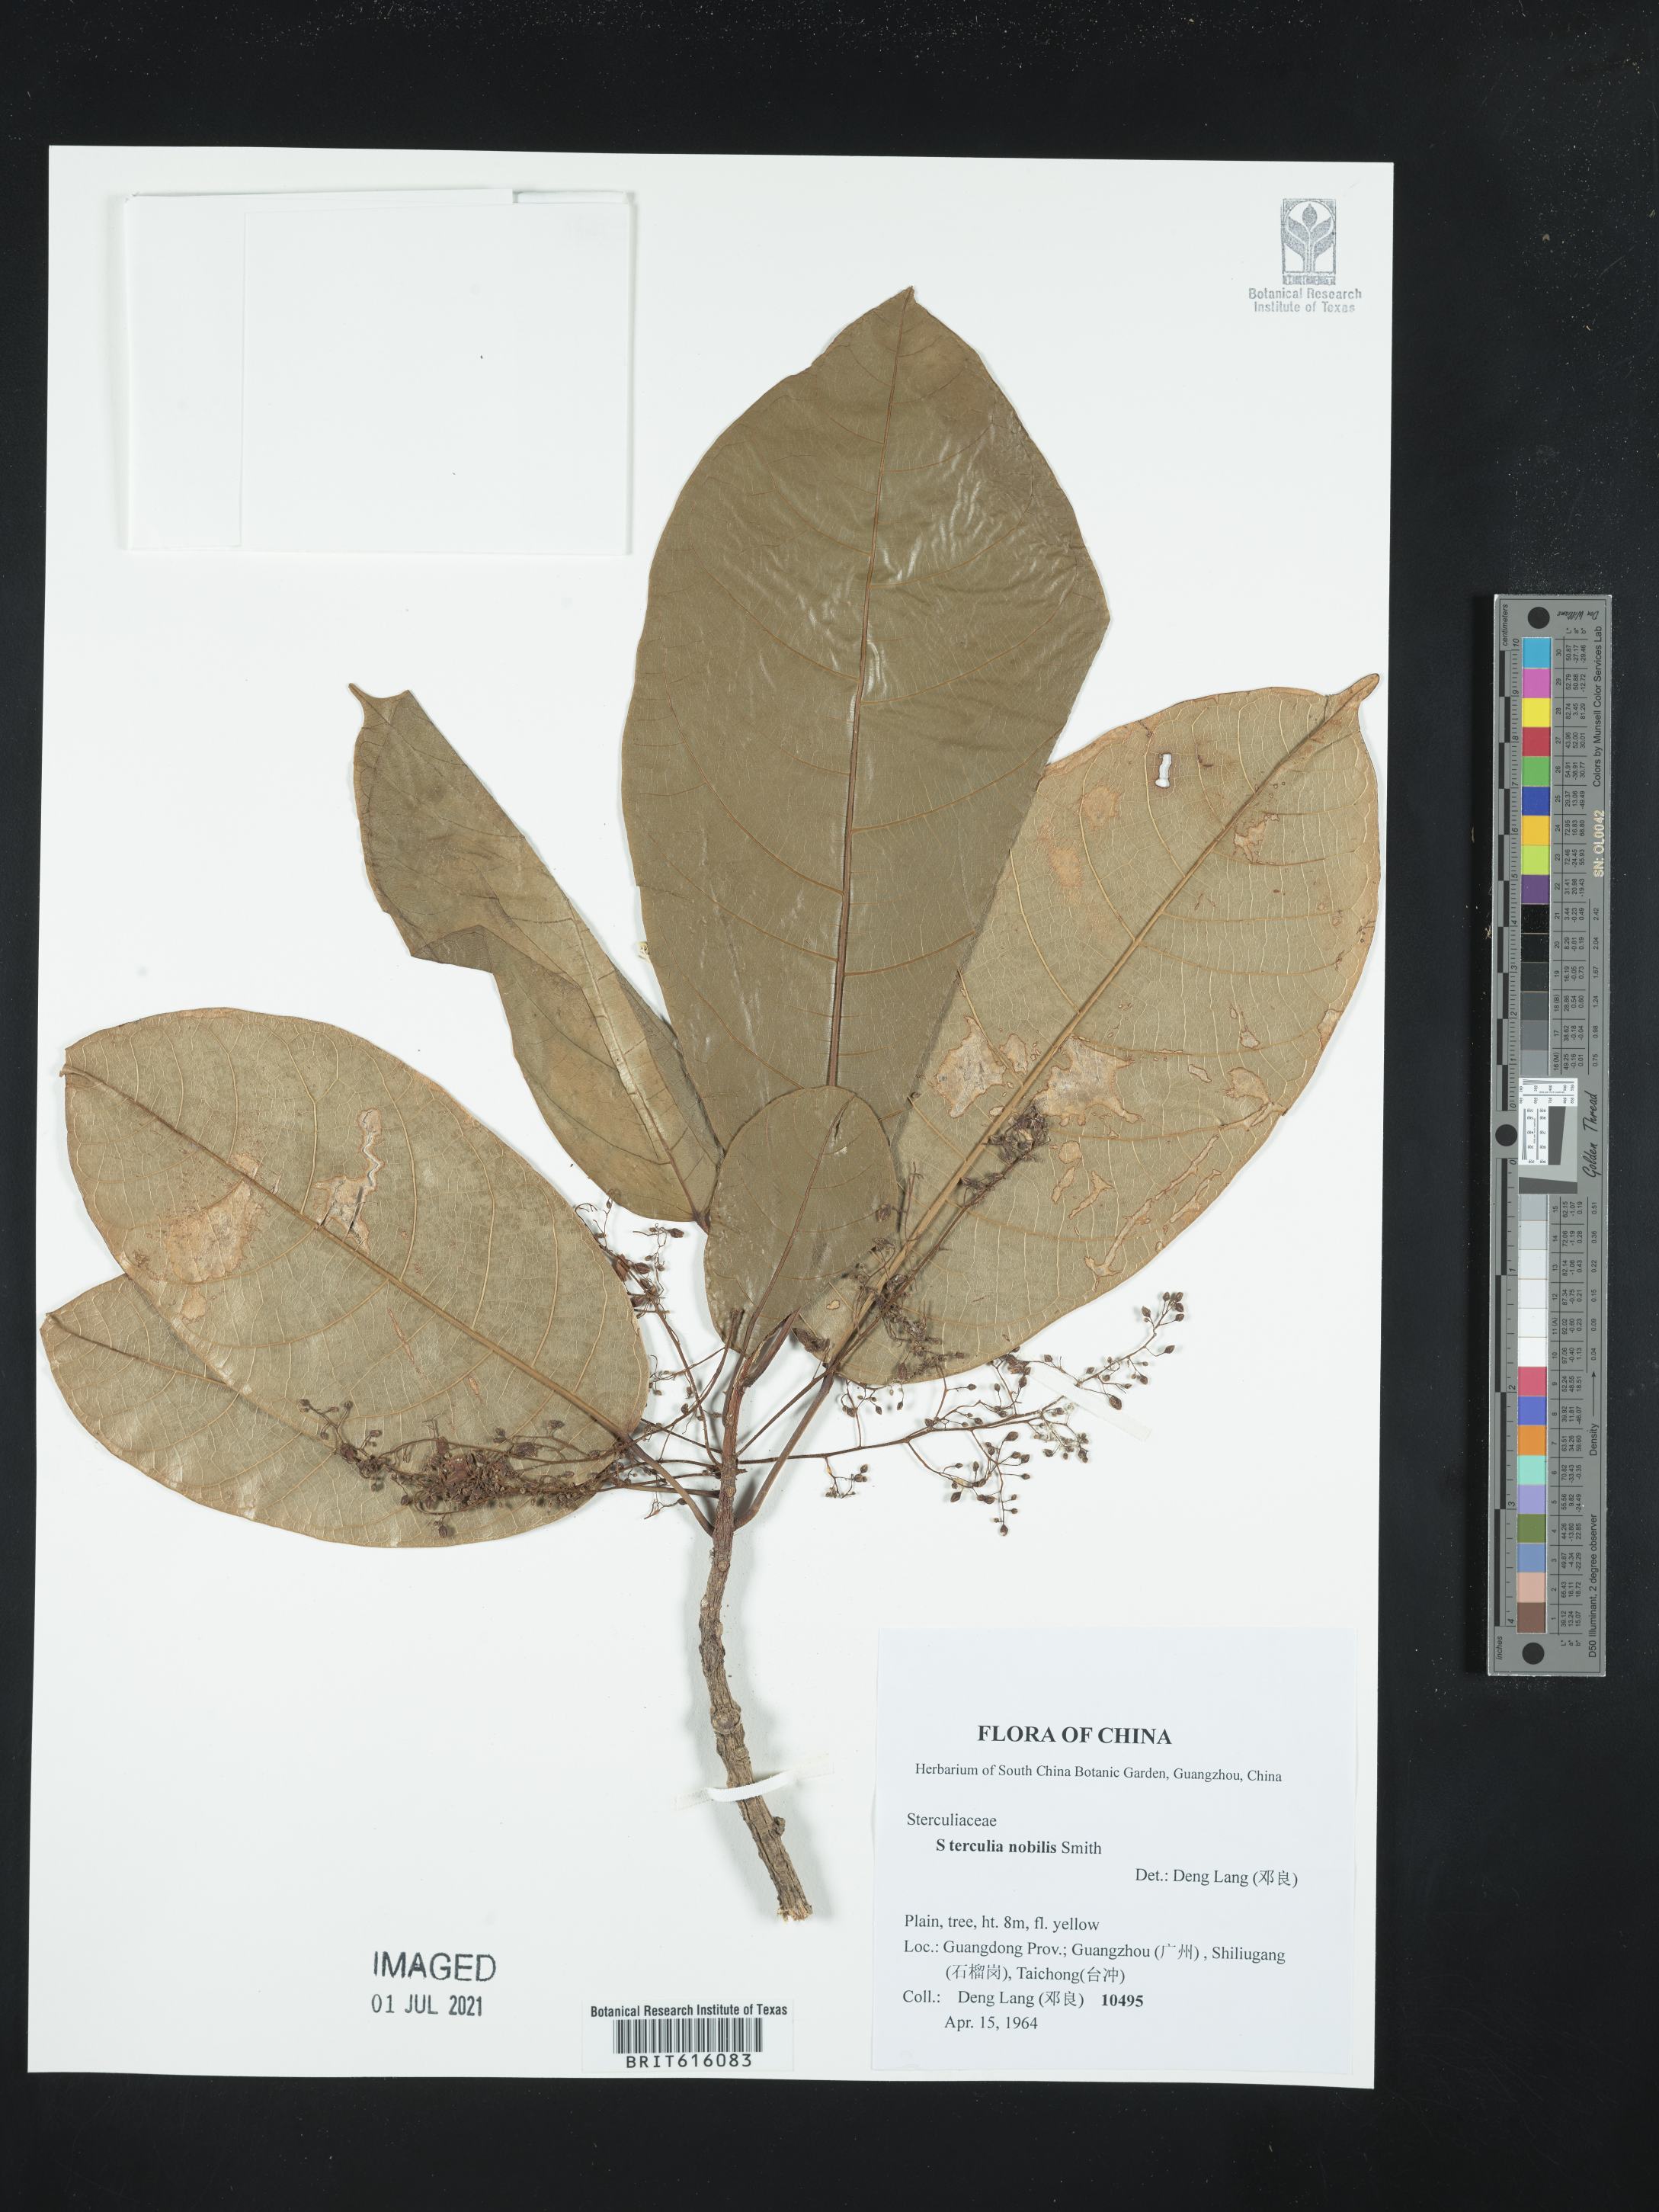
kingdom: Plantae
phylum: Tracheophyta
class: Magnoliopsida
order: Malvales
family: Malvaceae
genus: Sterculia
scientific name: Sterculia monosperma
